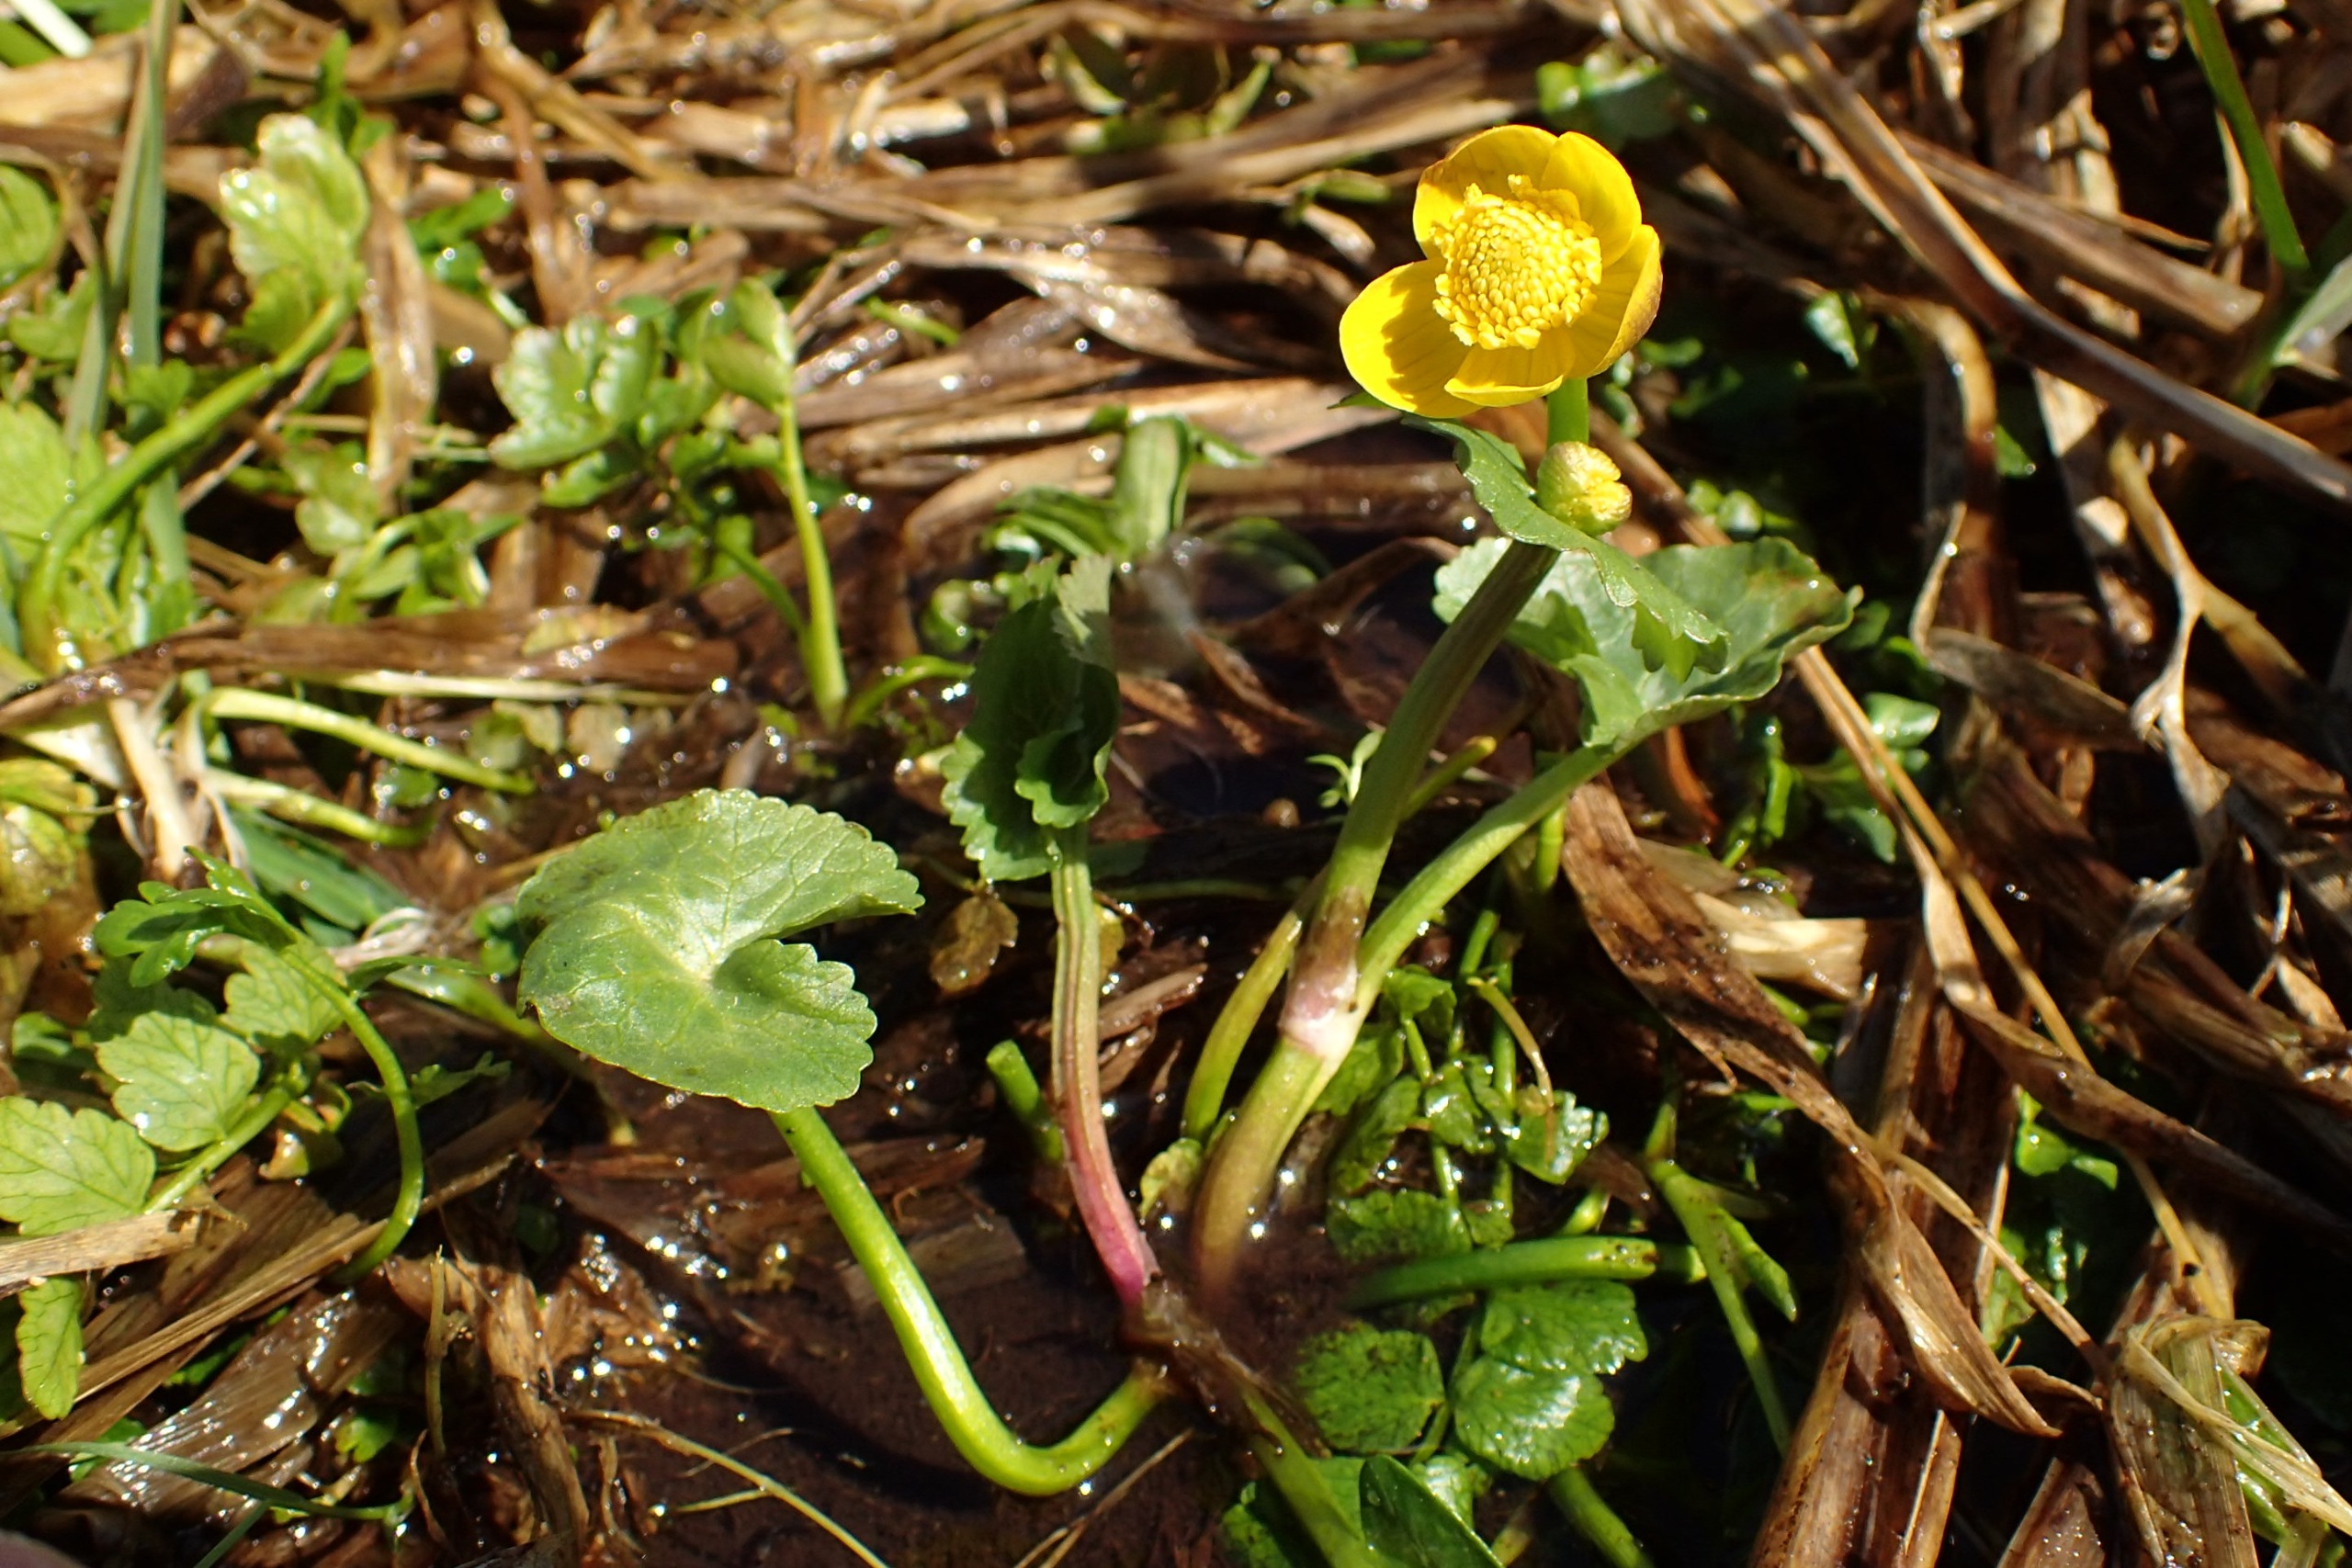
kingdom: Plantae
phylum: Tracheophyta
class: Magnoliopsida
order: Ranunculales
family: Ranunculaceae
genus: Caltha
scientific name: Caltha palustris
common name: Eng-kabbeleje
